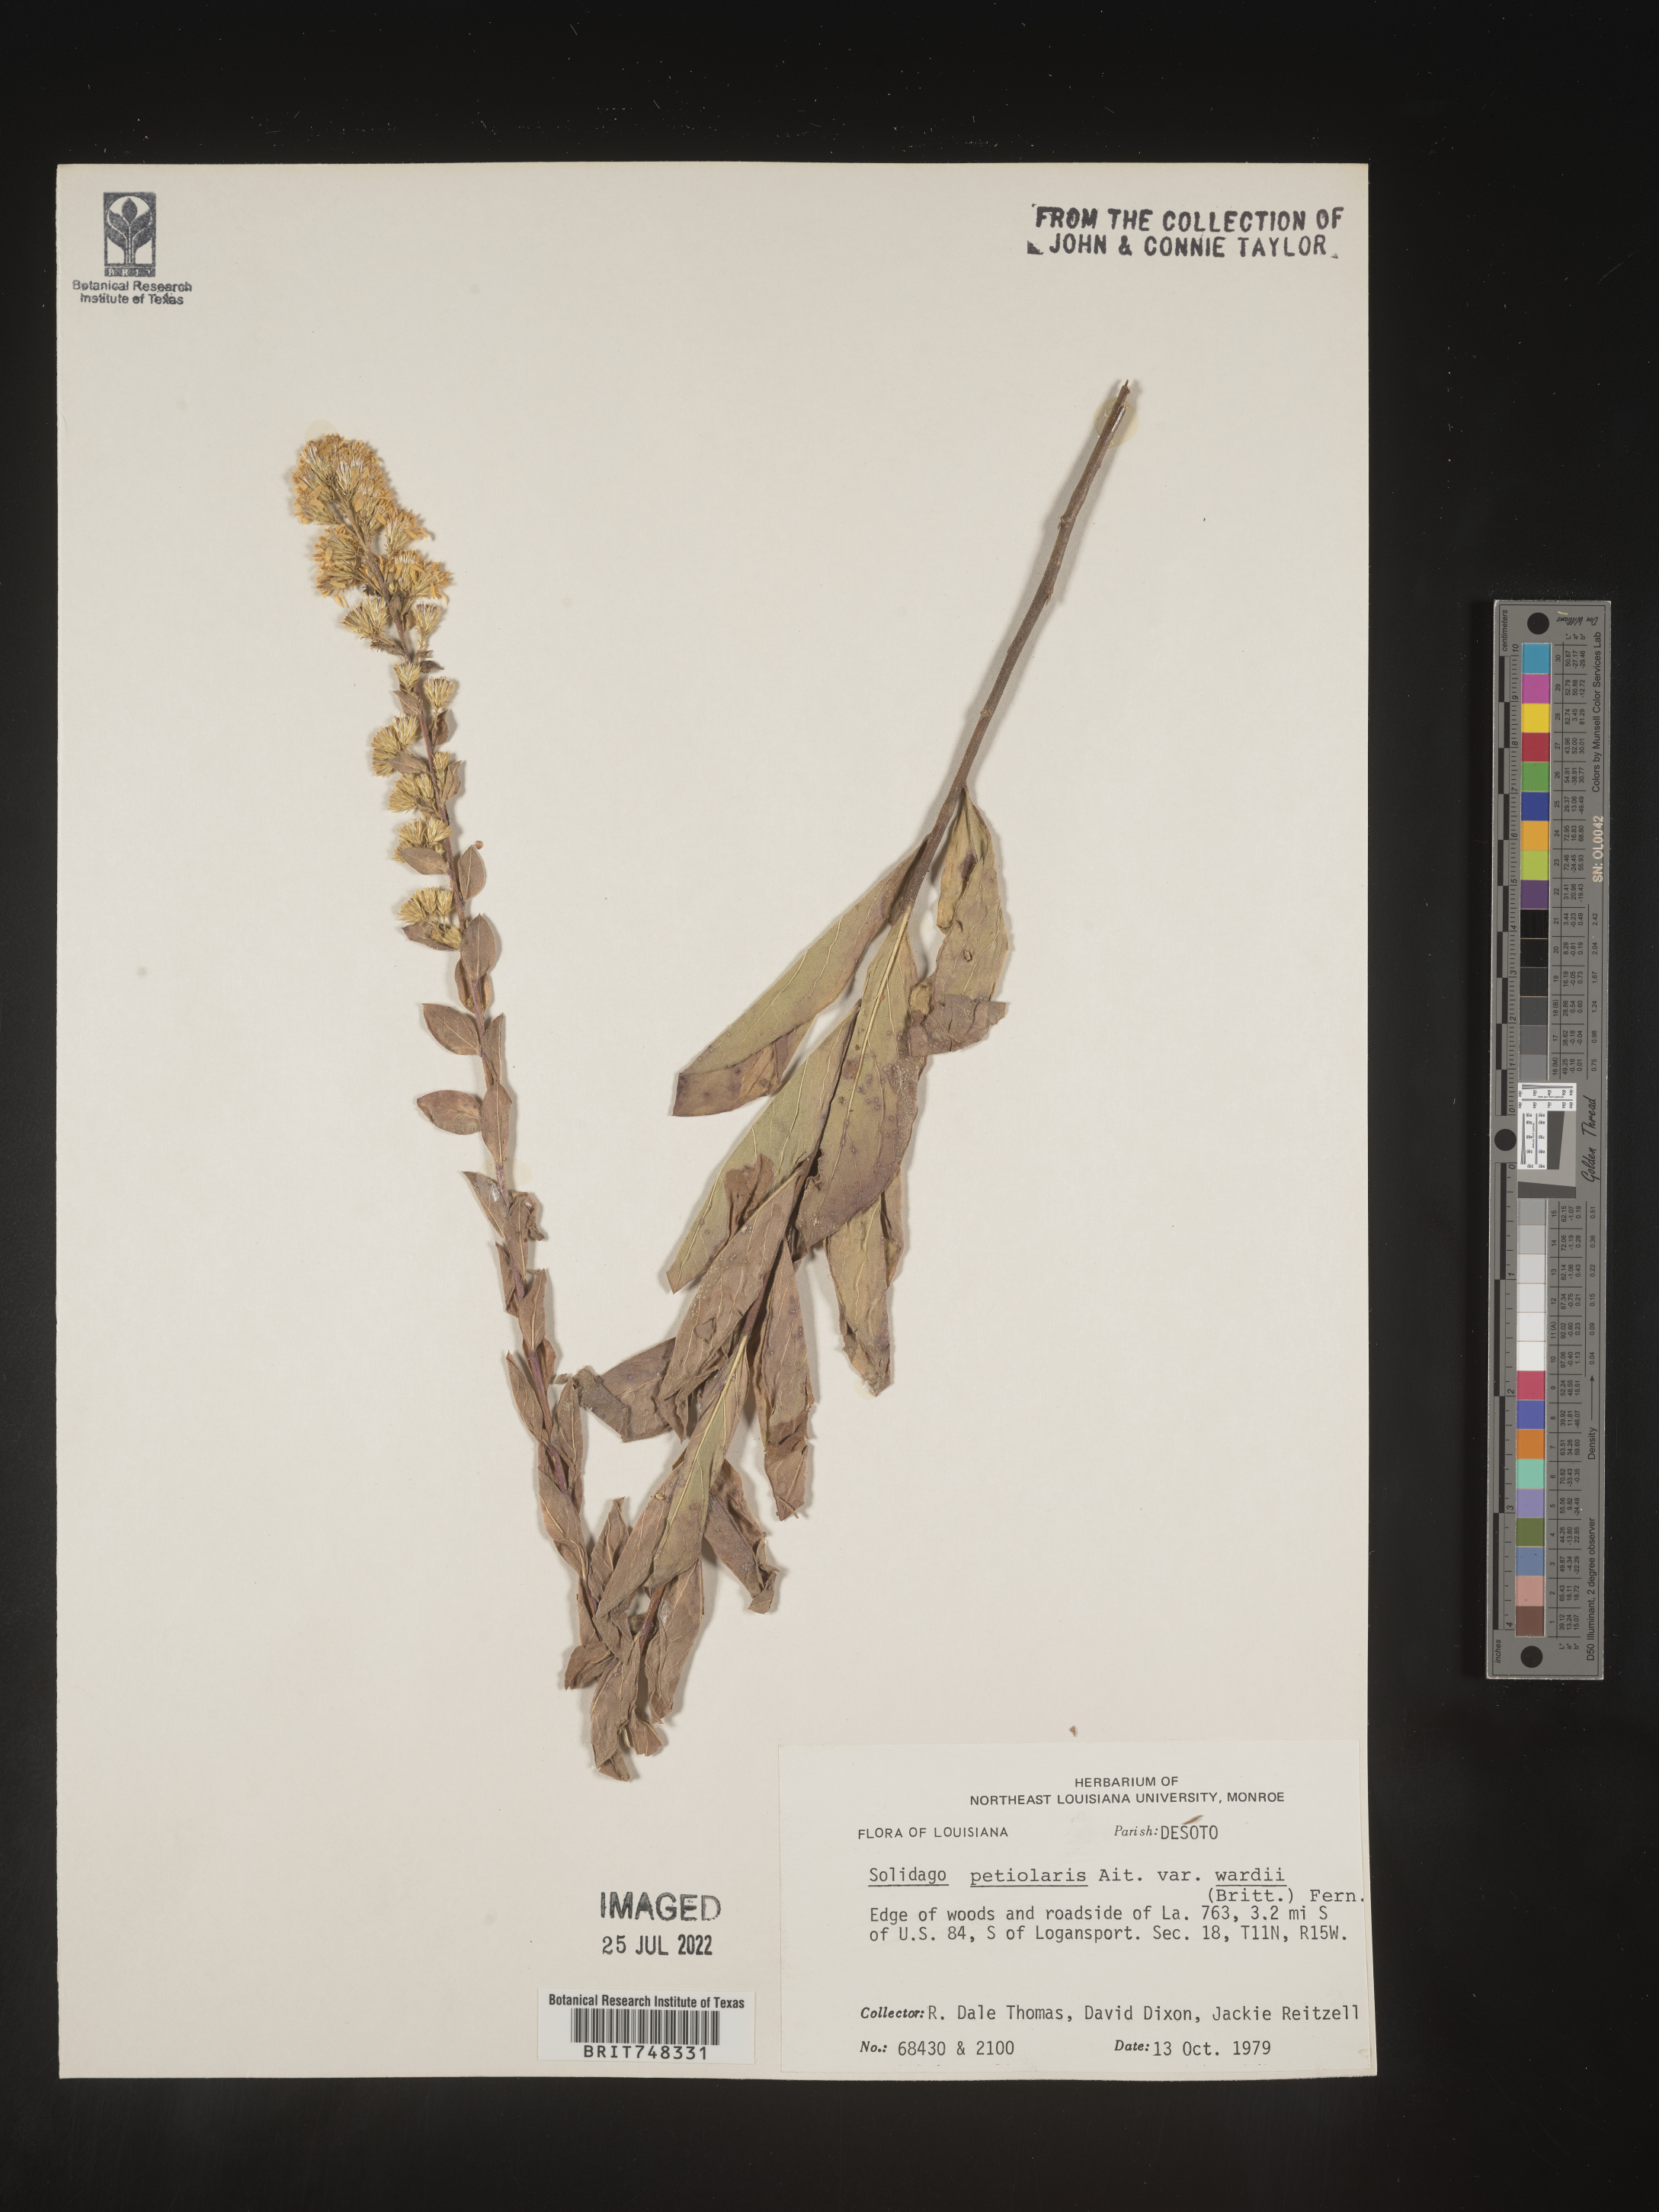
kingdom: Plantae
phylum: Tracheophyta
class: Magnoliopsida
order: Asterales
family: Asteraceae
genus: Solidago
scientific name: Solidago petiolaris
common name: Downy ragged goldenrod
